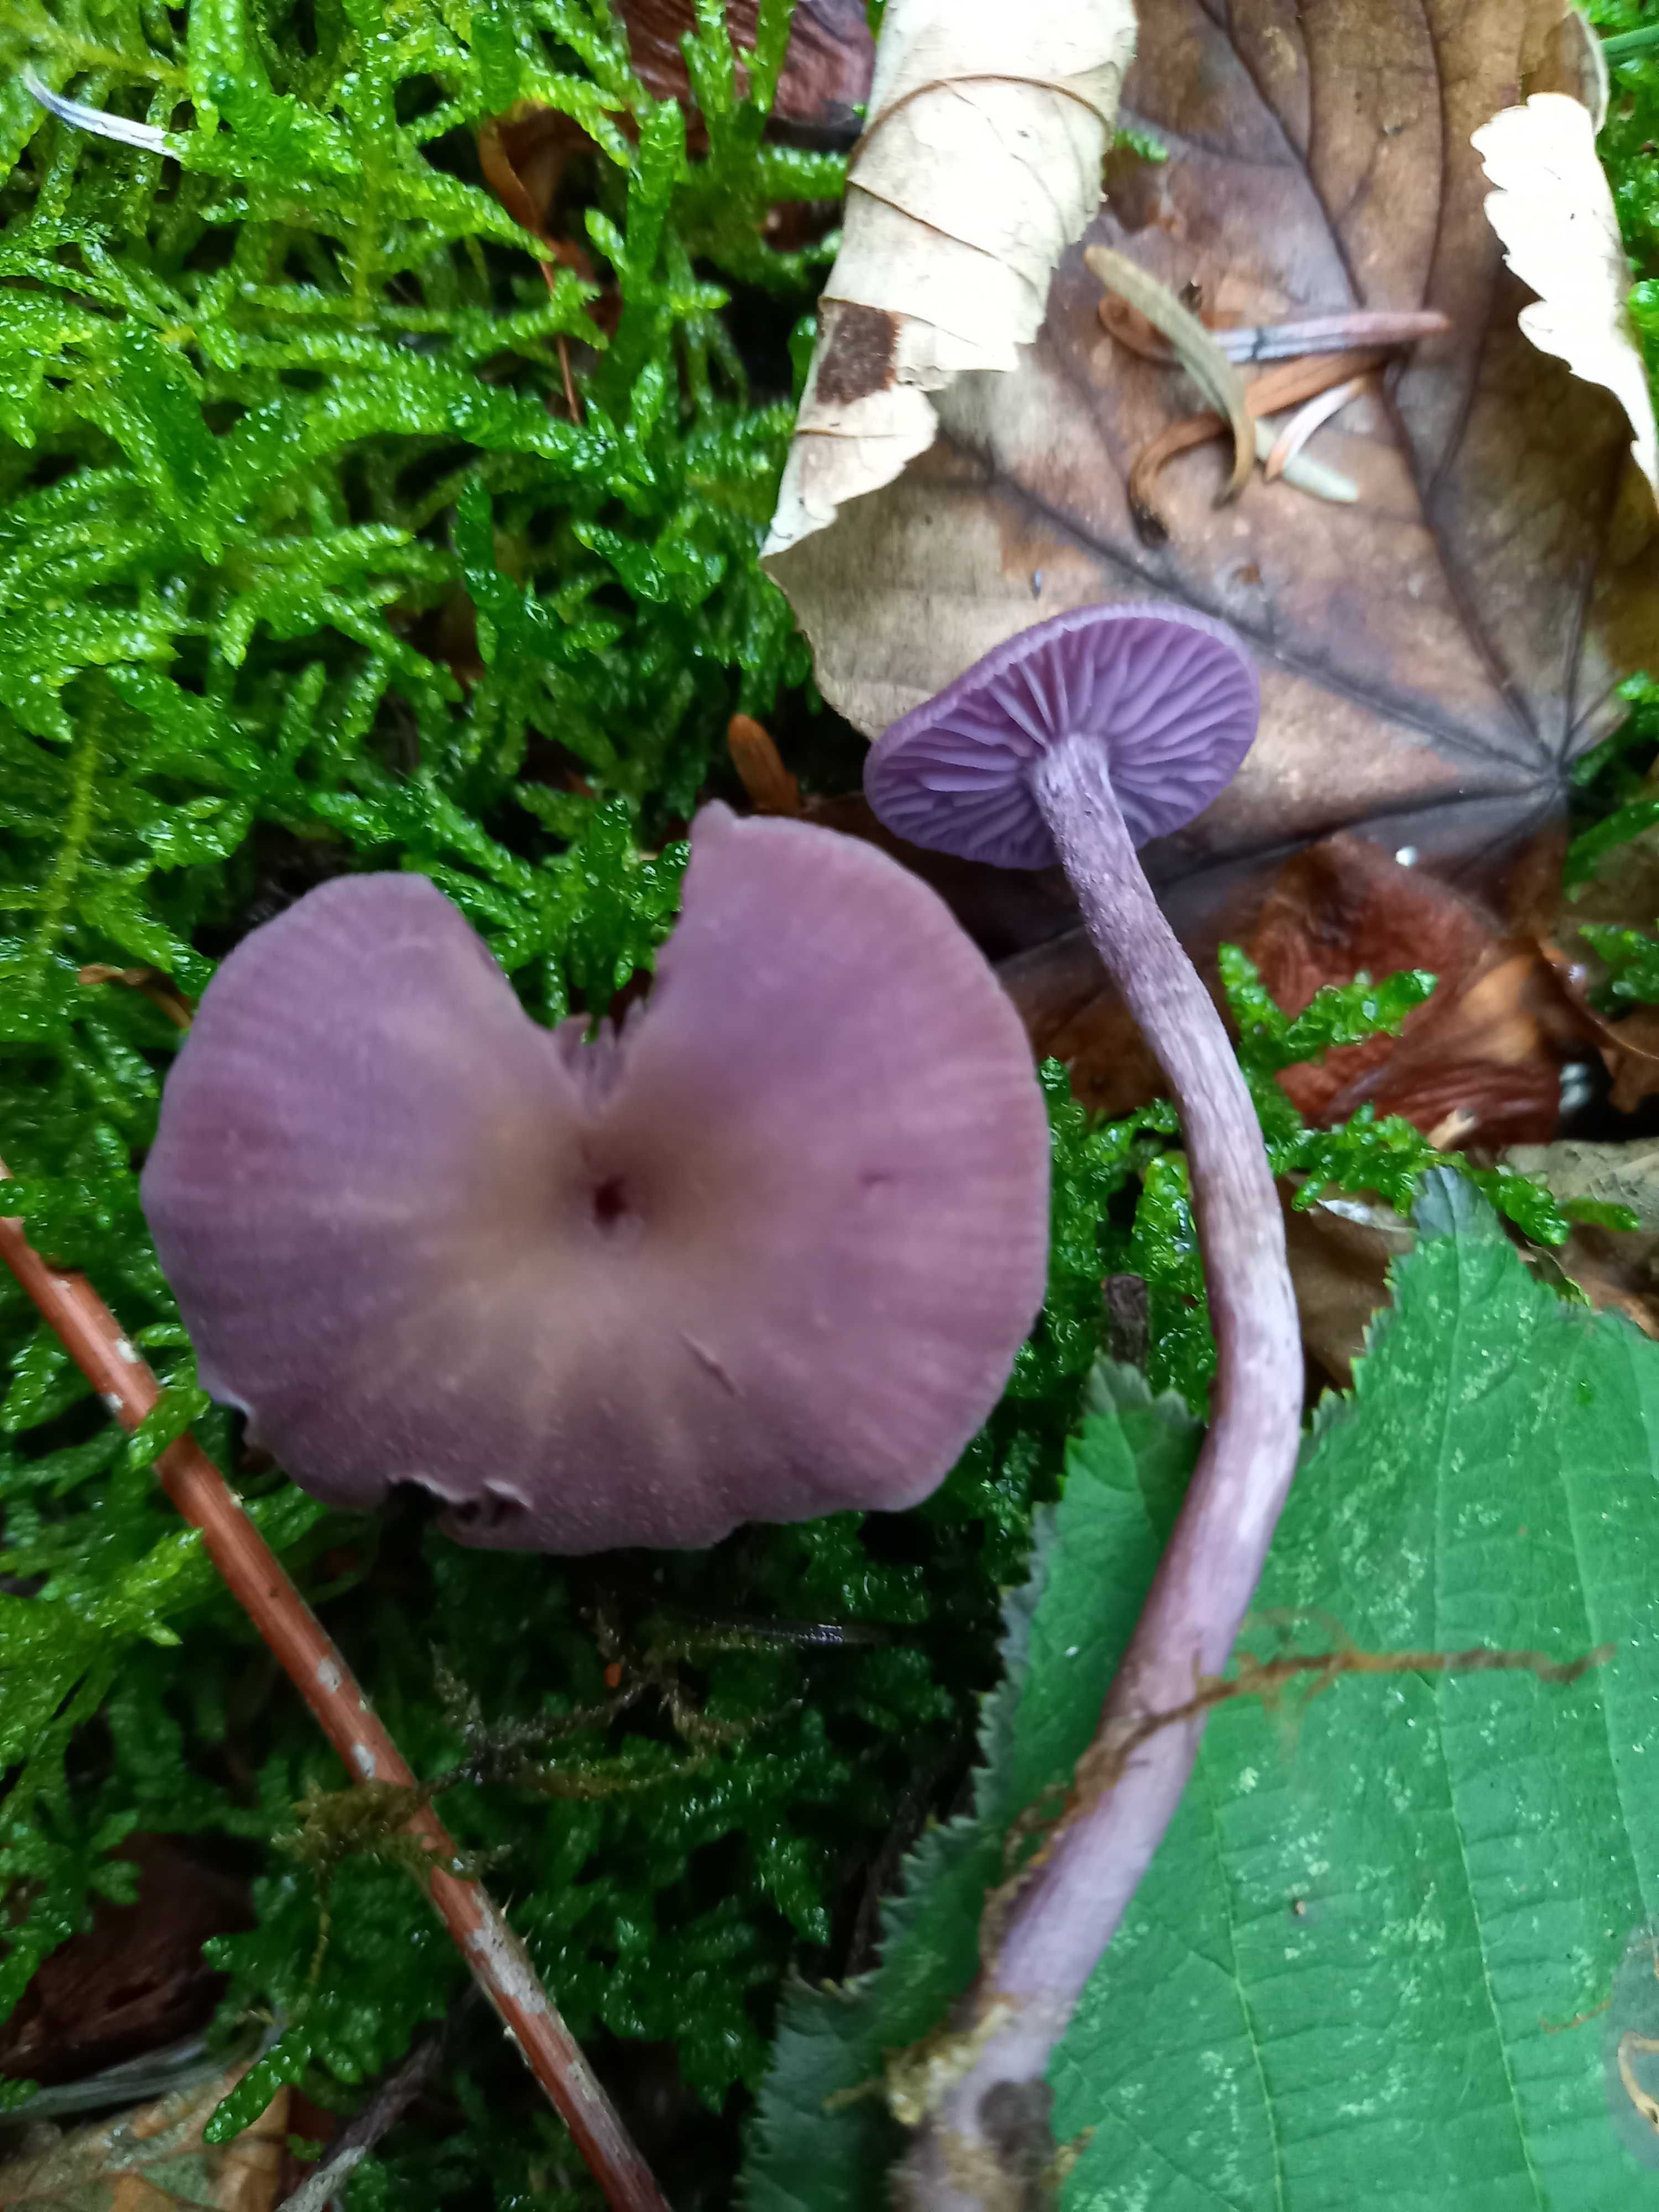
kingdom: Fungi
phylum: Basidiomycota
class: Agaricomycetes
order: Agaricales
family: Hydnangiaceae
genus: Laccaria
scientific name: Laccaria amethystina
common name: violet ametysthat
